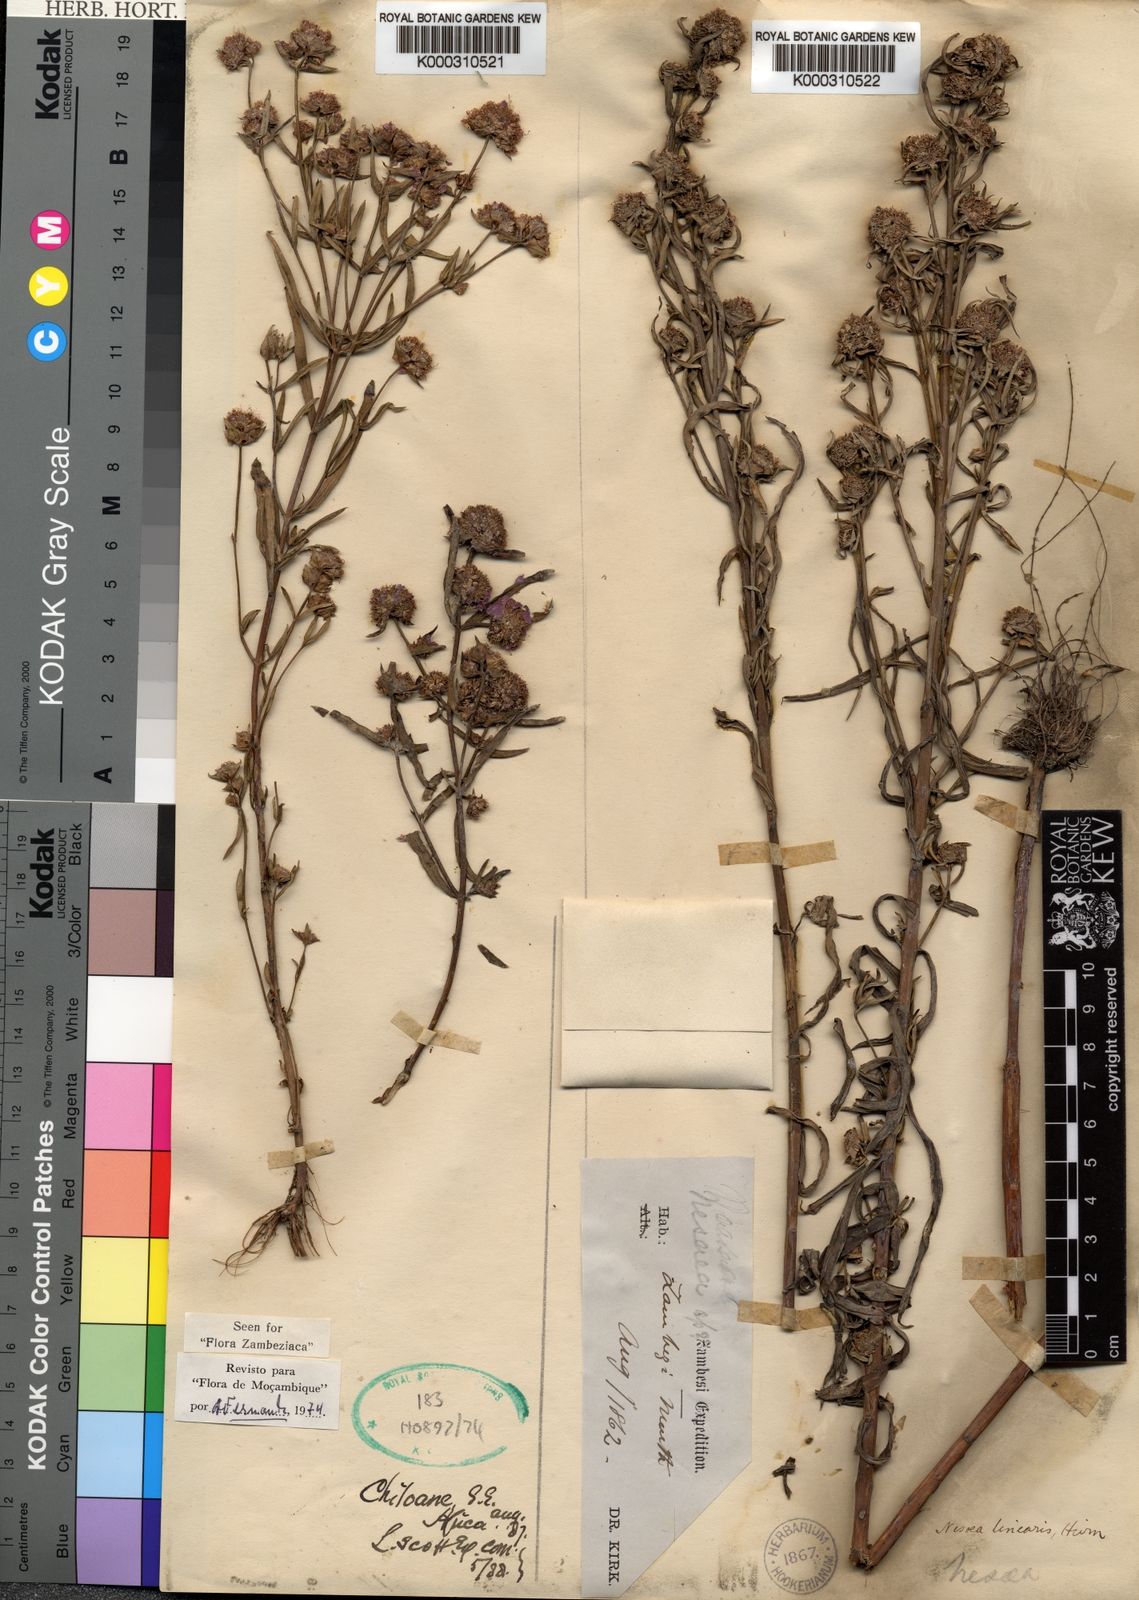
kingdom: Plantae
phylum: Tracheophyta
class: Magnoliopsida
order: Myrtales
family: Lythraceae
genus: Ammannia
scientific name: Ammannia linearis
